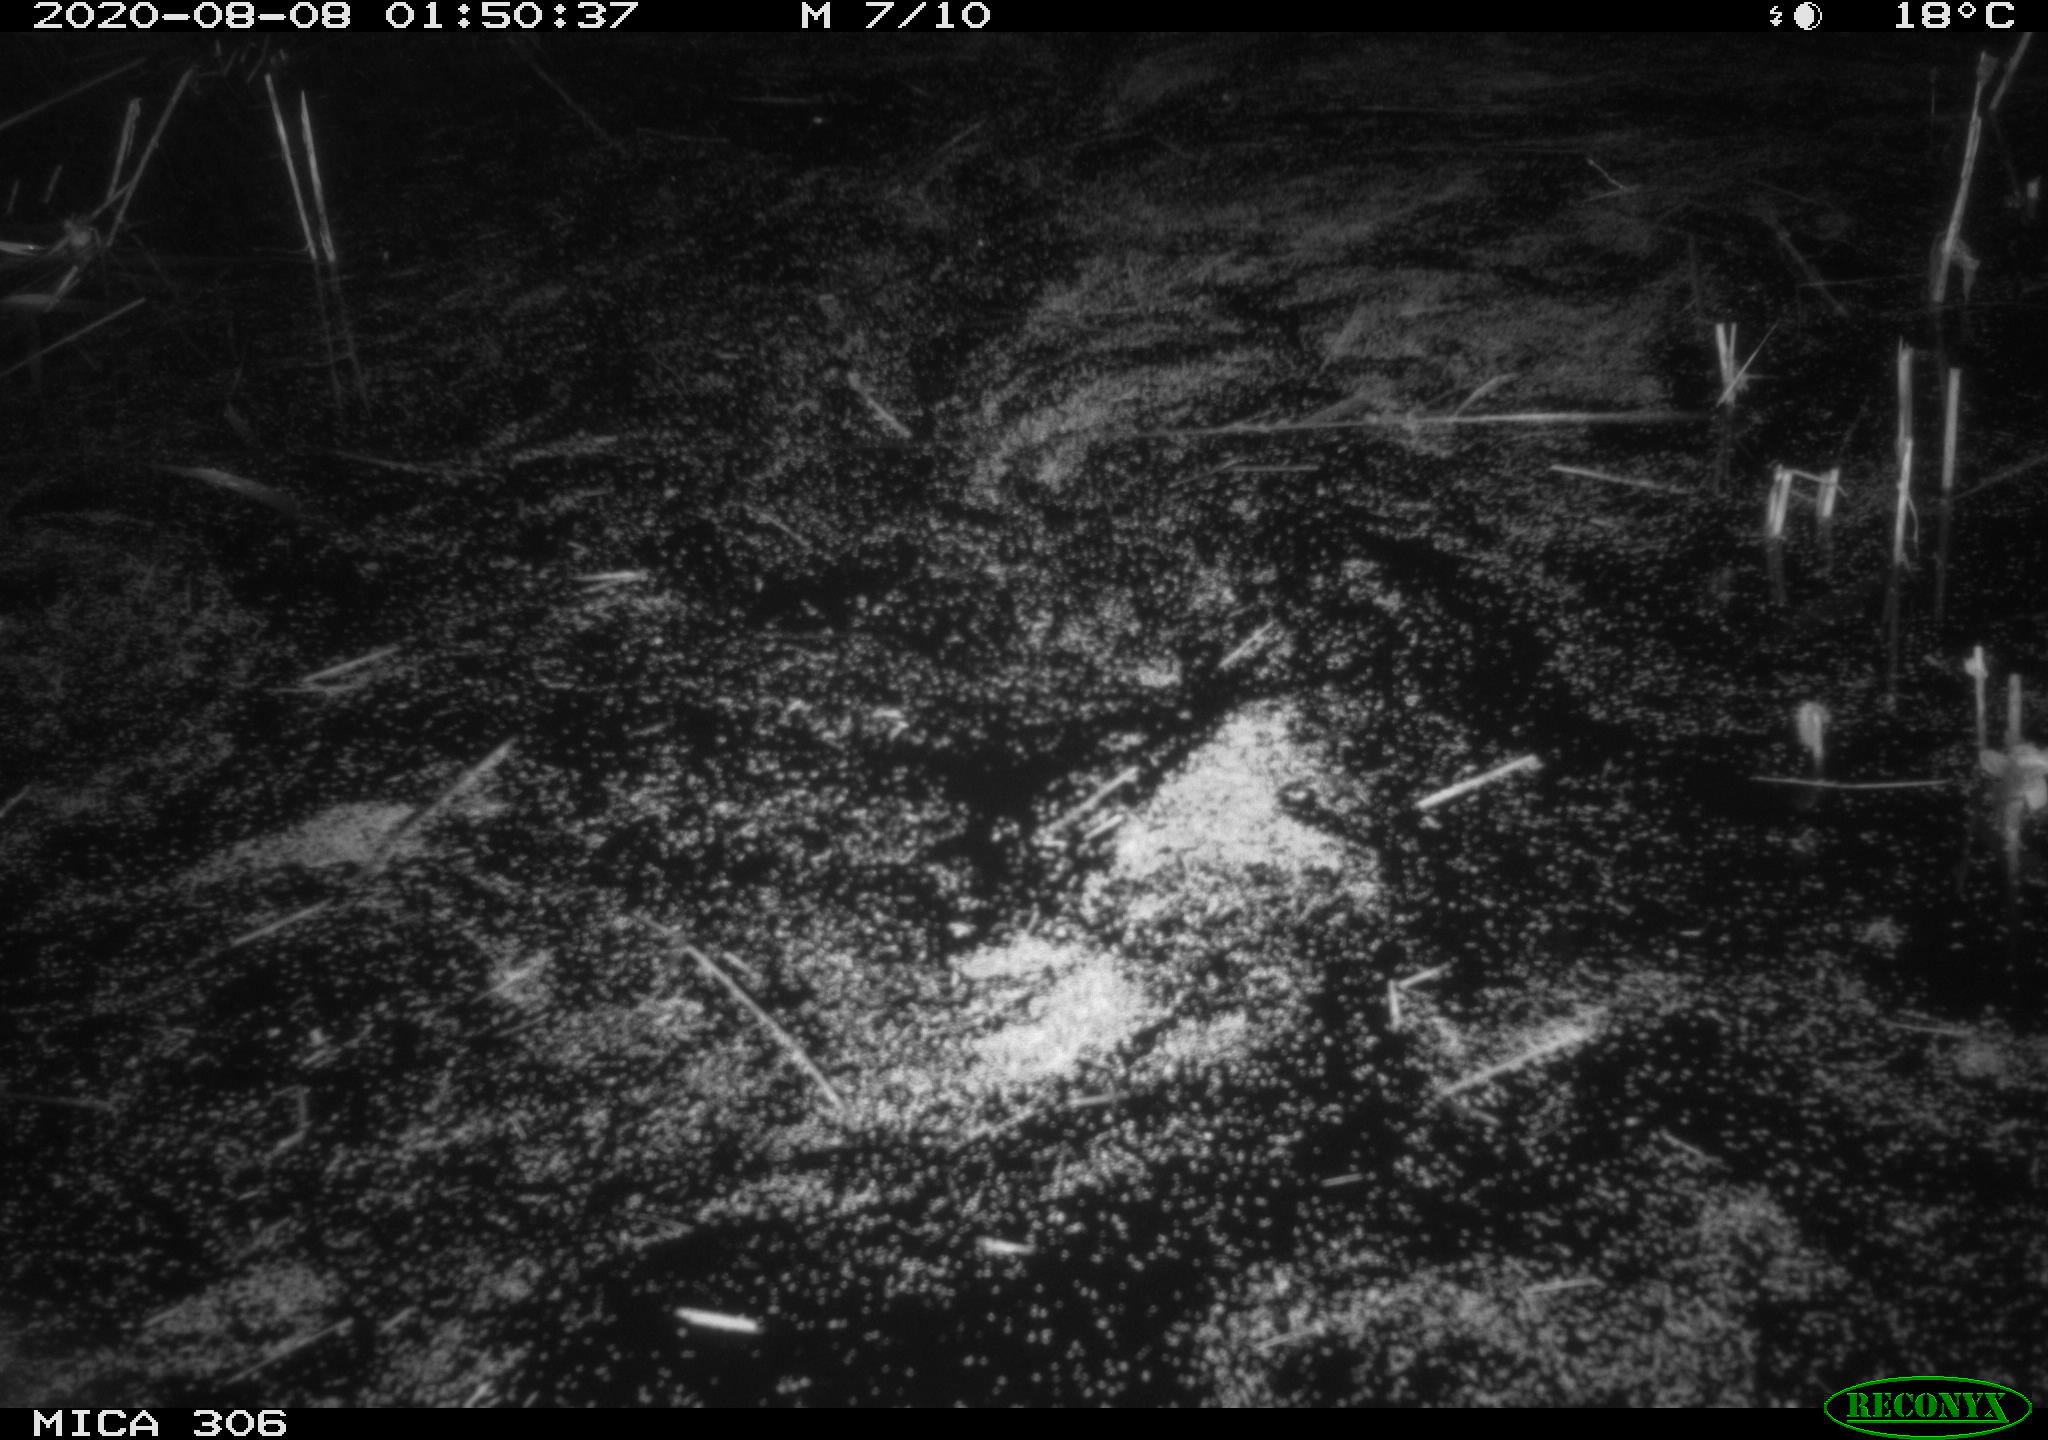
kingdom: Animalia
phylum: Chordata
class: Mammalia
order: Rodentia
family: Muridae
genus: Rattus
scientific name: Rattus norvegicus
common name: Brown rat
